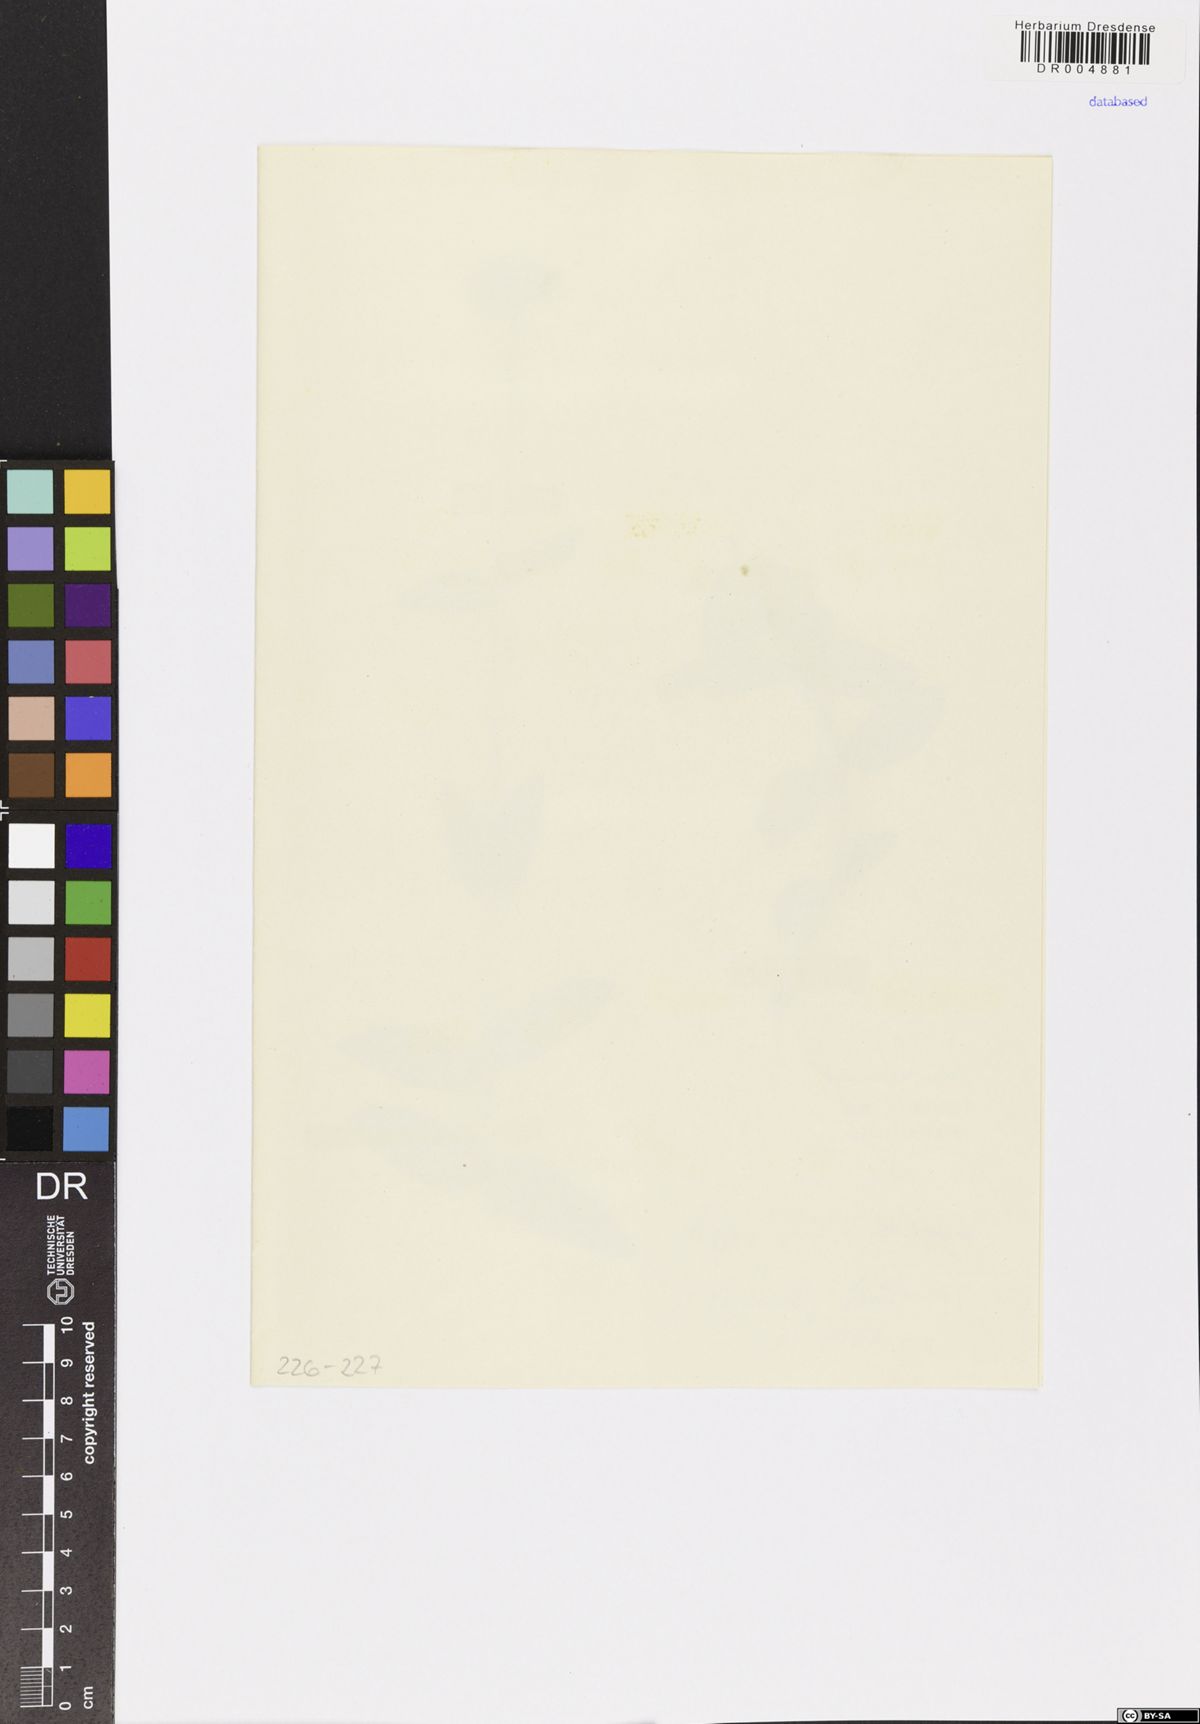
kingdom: Plantae
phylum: Tracheophyta
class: Magnoliopsida
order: Malpighiales
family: Hypericaceae
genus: Hypericum
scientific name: Hypericum montanum
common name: Pale st. john's-wort
